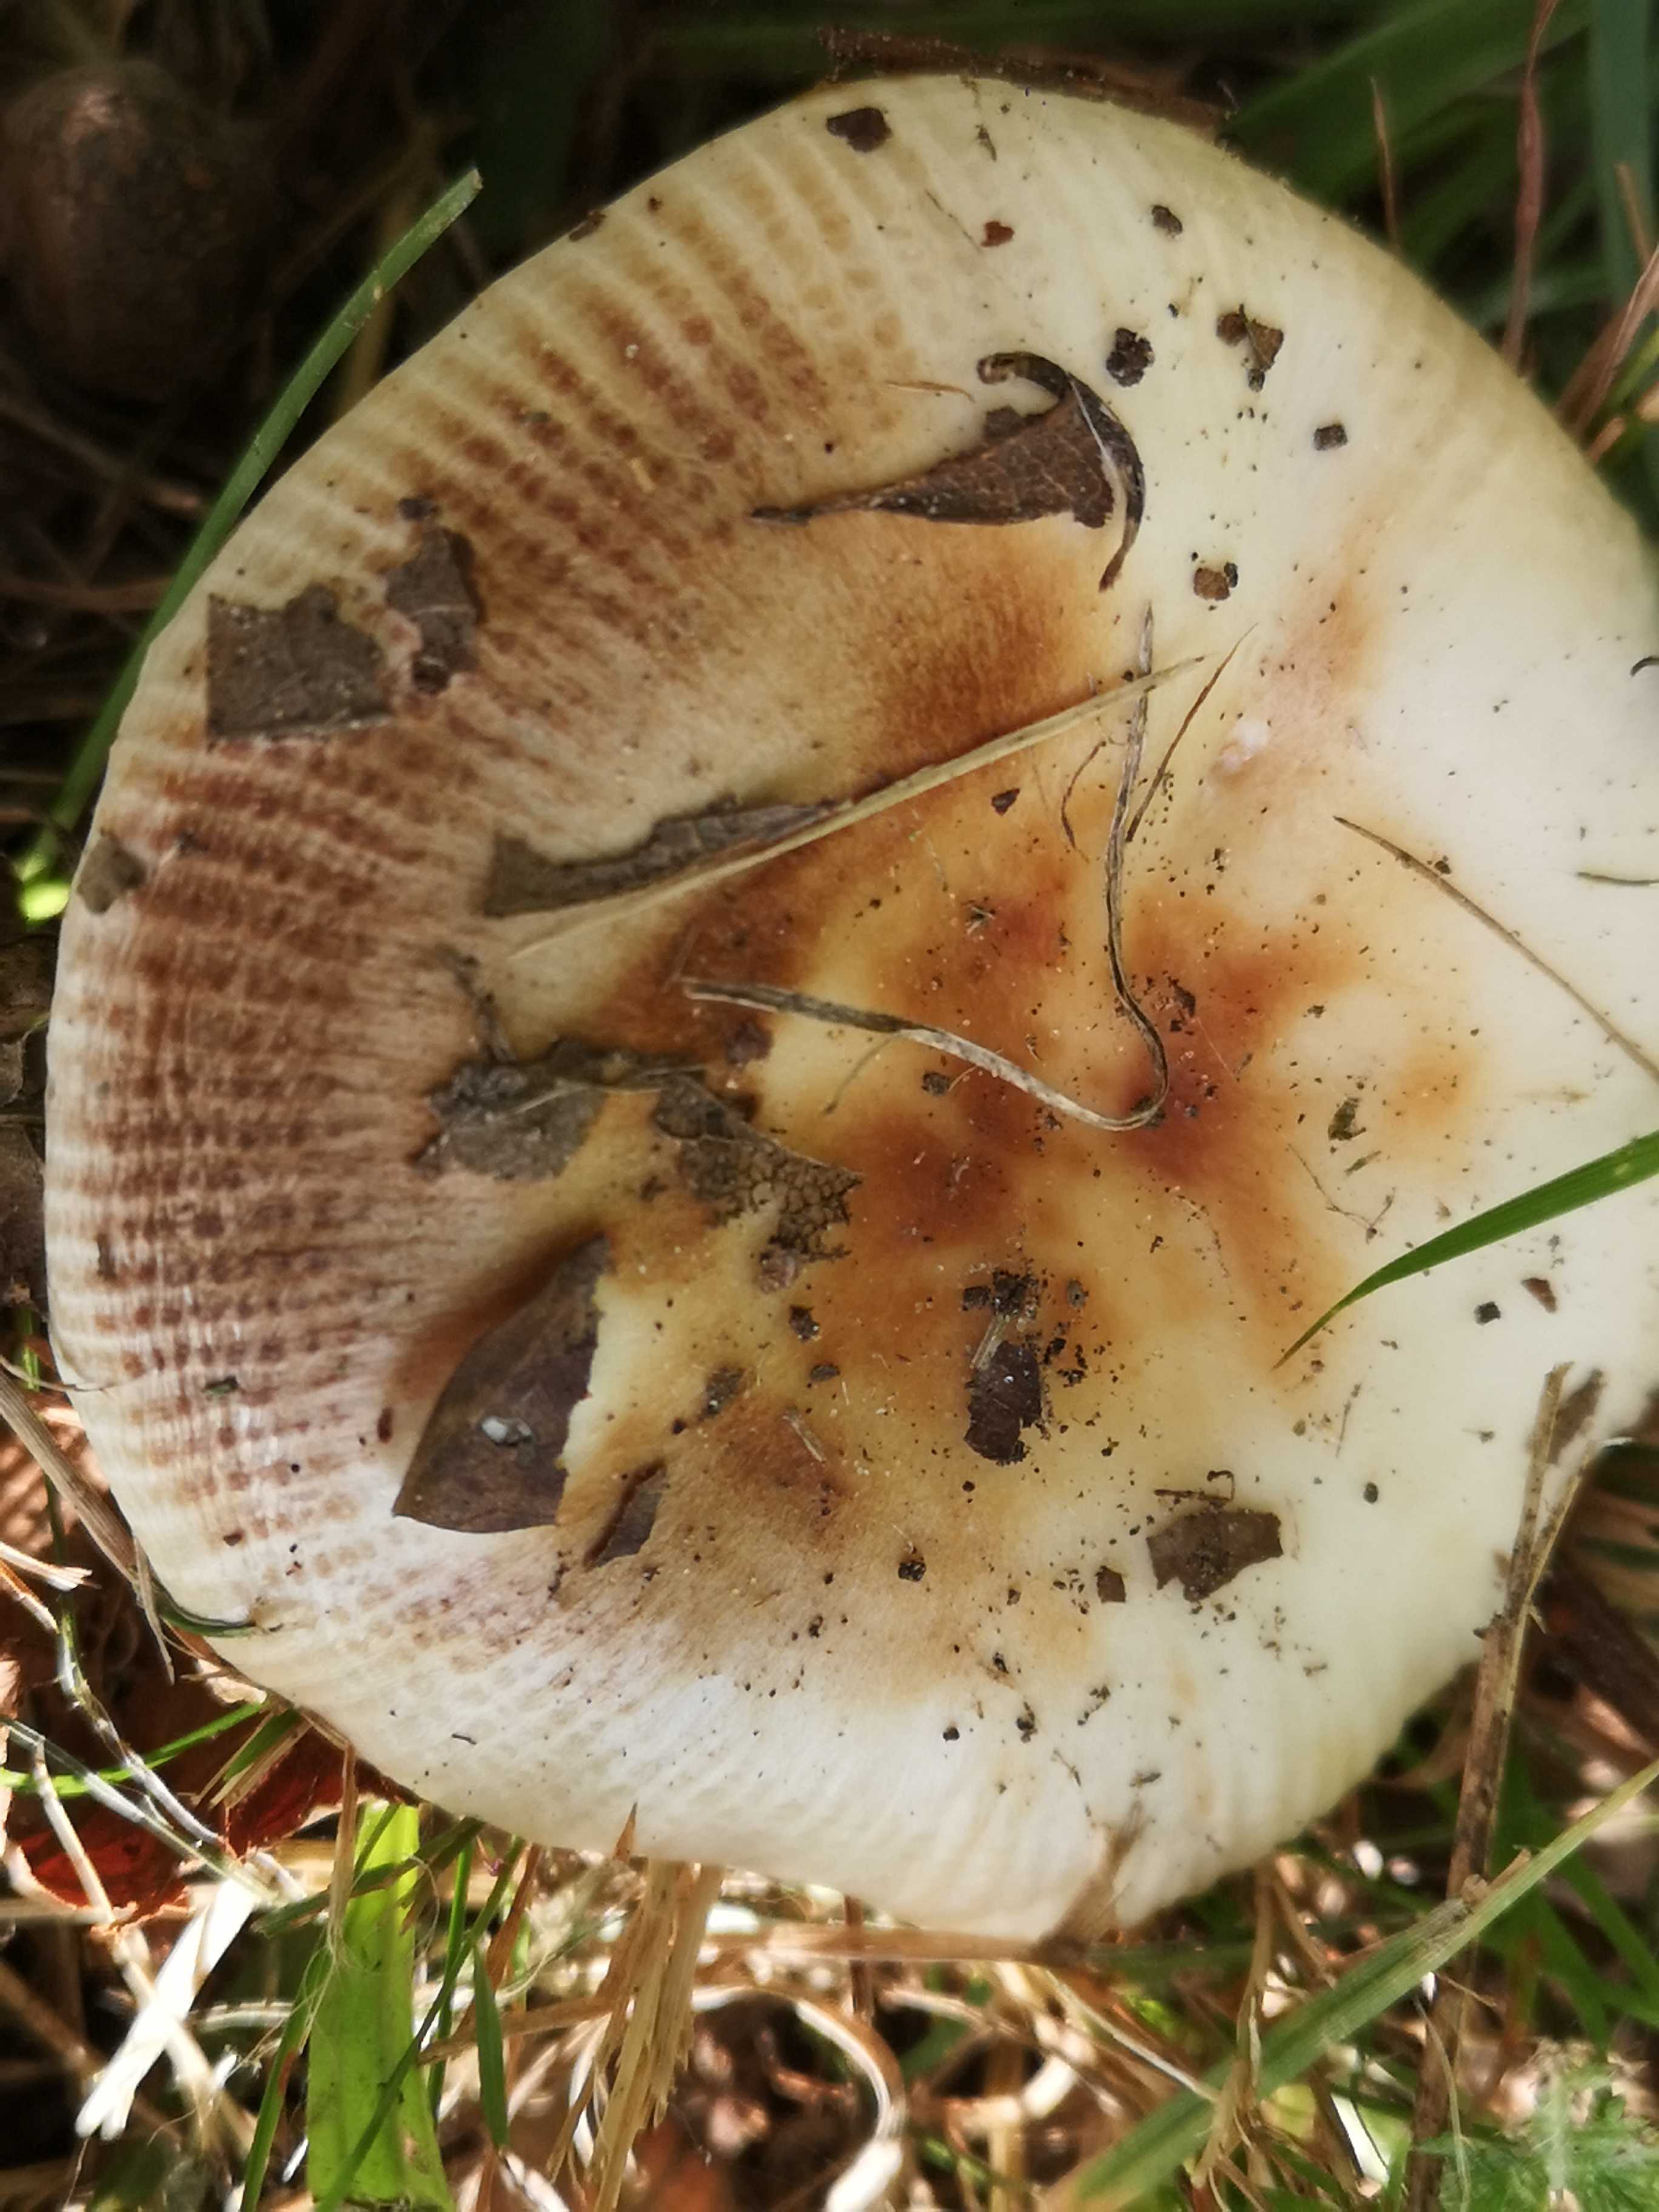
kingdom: Fungi
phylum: Basidiomycota
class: Agaricomycetes
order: Russulales
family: Russulaceae
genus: Russula
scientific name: Russula
